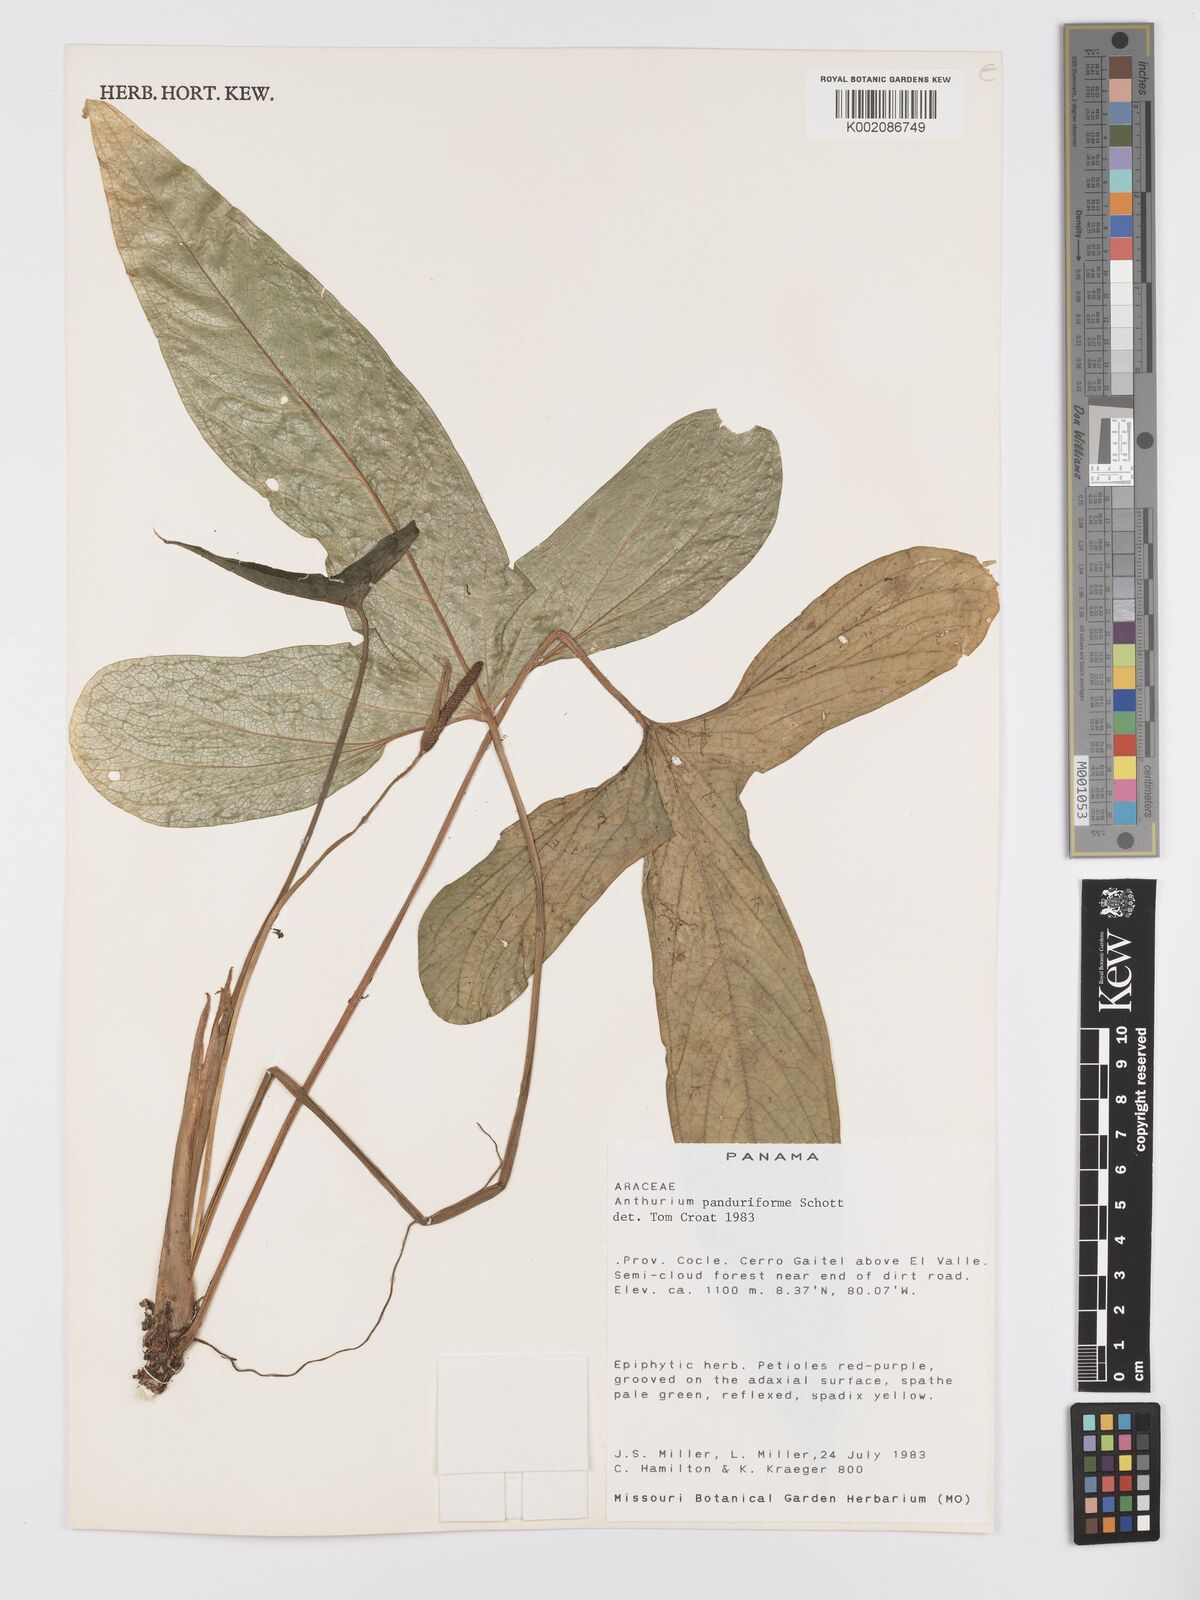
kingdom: Plantae
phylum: Tracheophyta
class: Liliopsida
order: Alismatales
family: Araceae
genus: Anthurium
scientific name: Anthurium panduriforme
